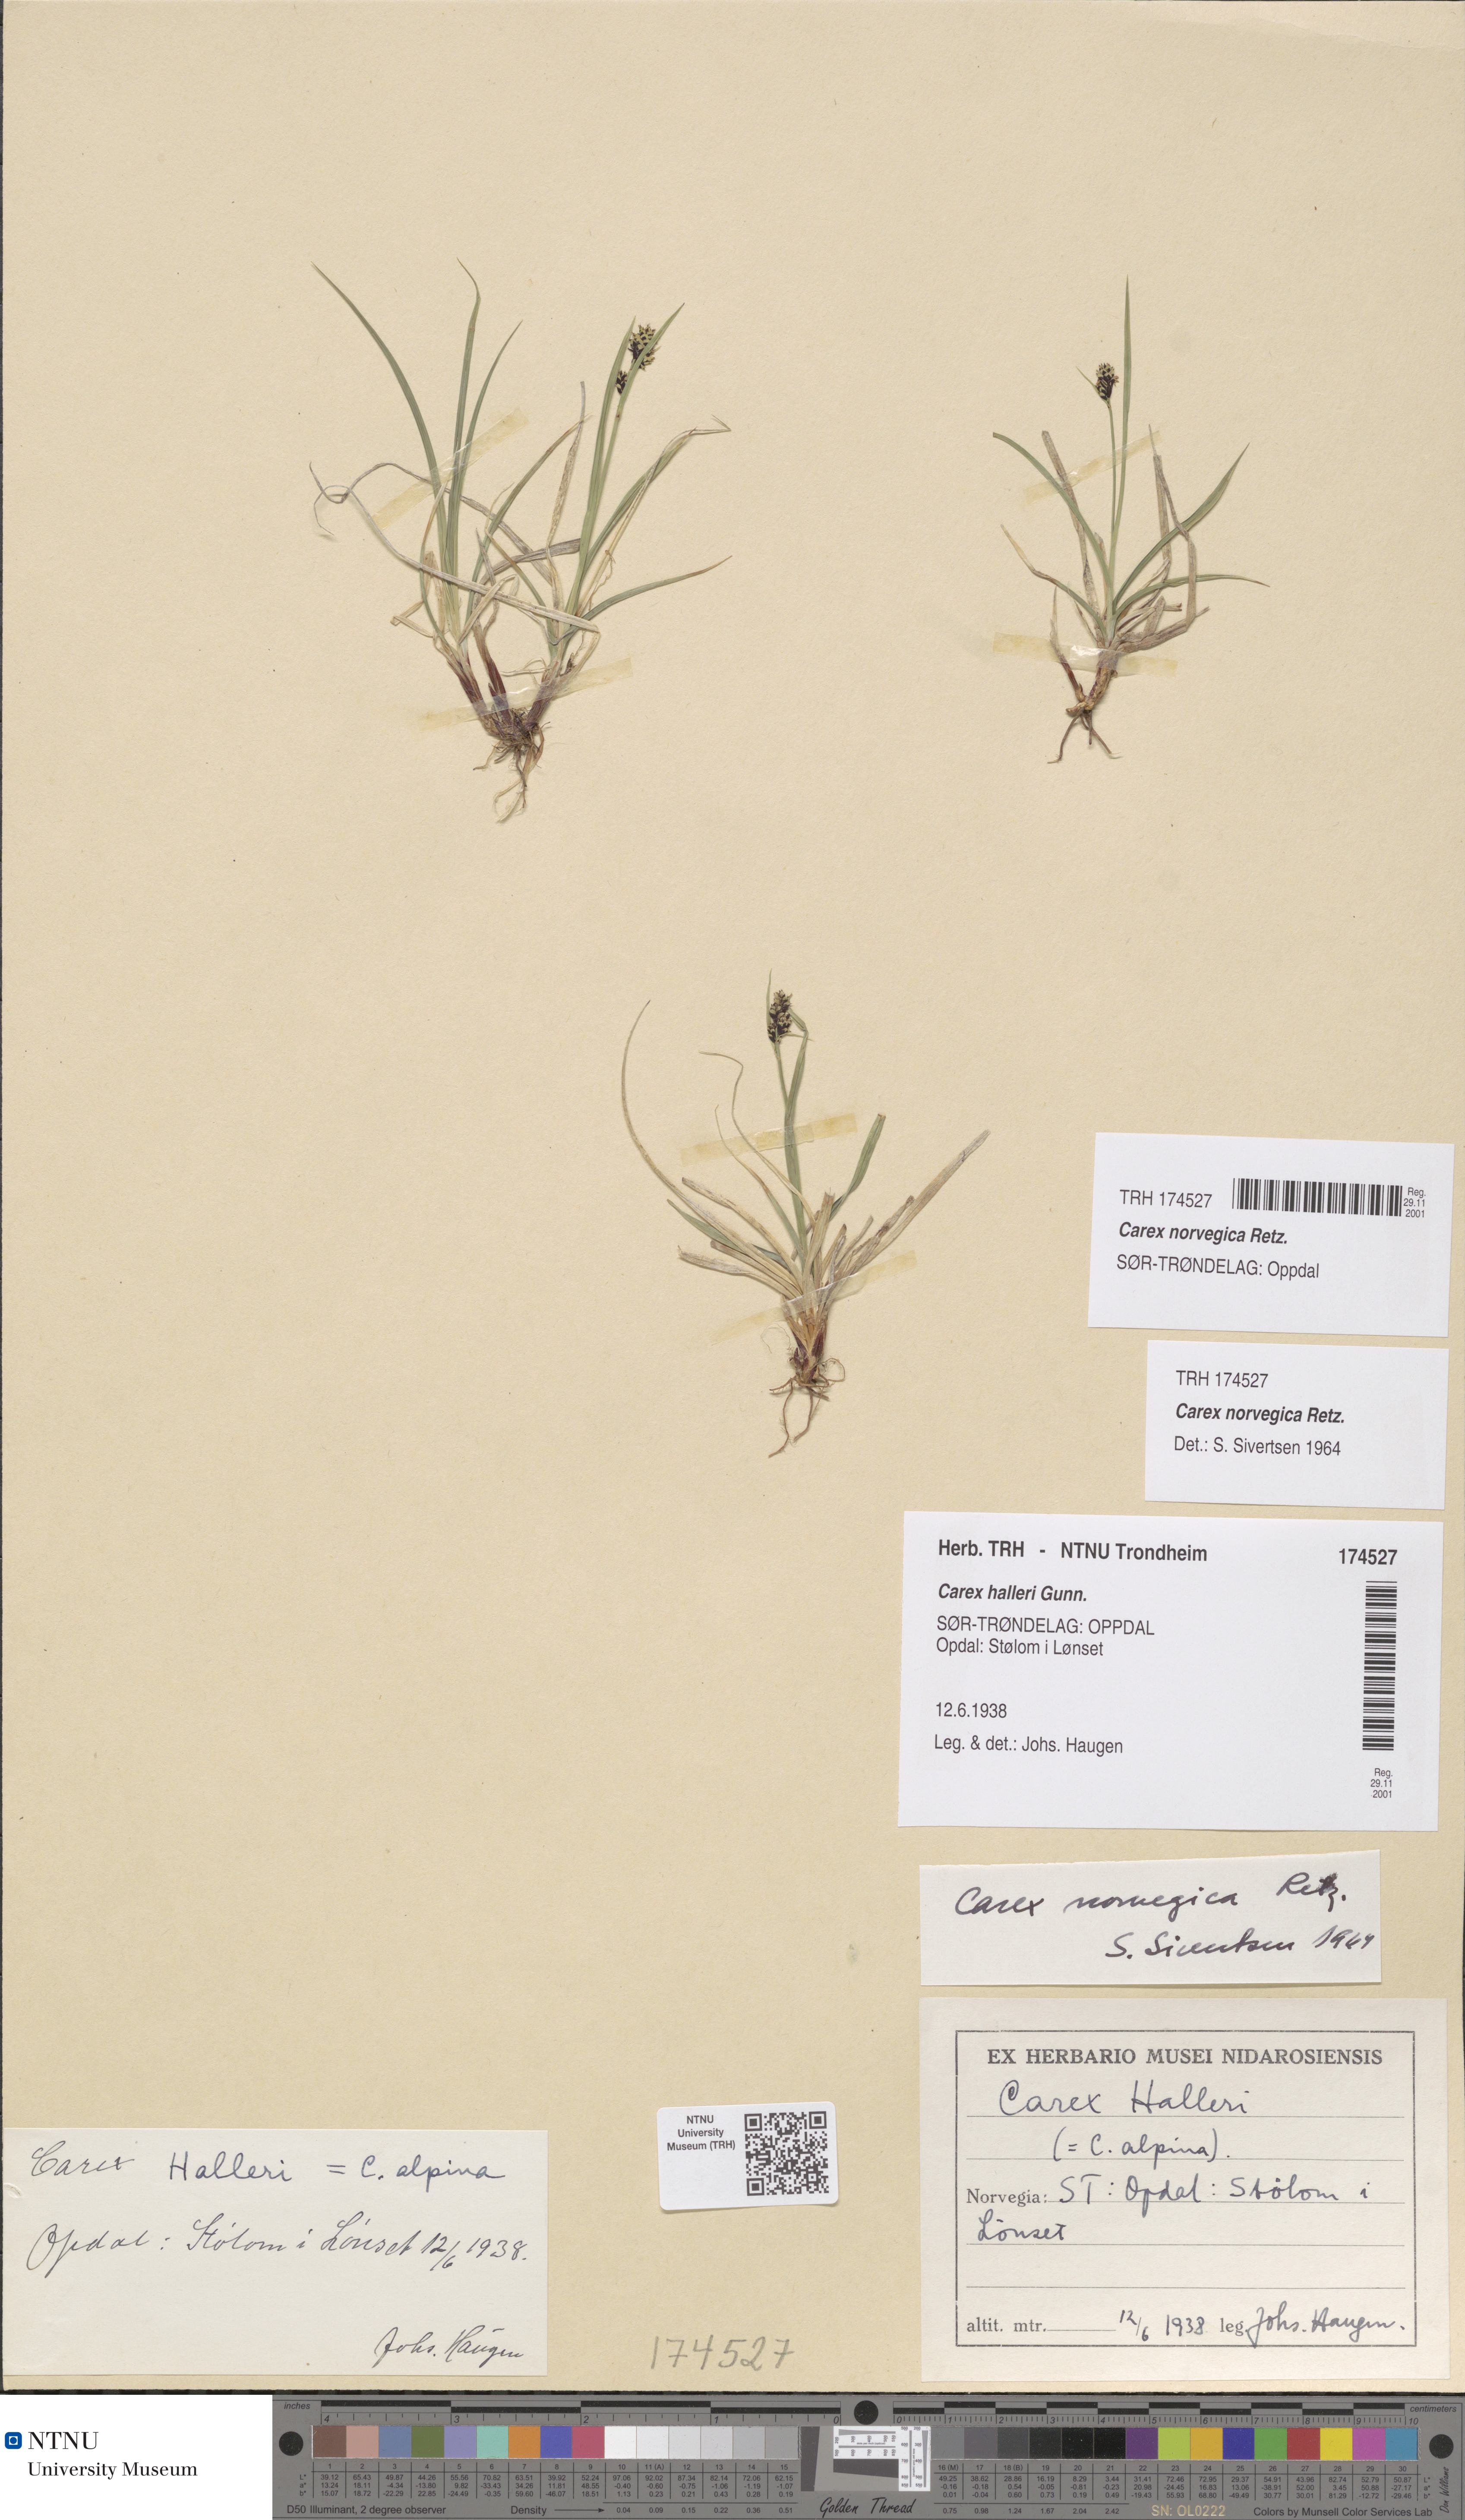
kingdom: Plantae
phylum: Tracheophyta
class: Liliopsida
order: Poales
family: Cyperaceae
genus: Carex
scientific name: Carex norvegica
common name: Close-headed alpine-sedge
